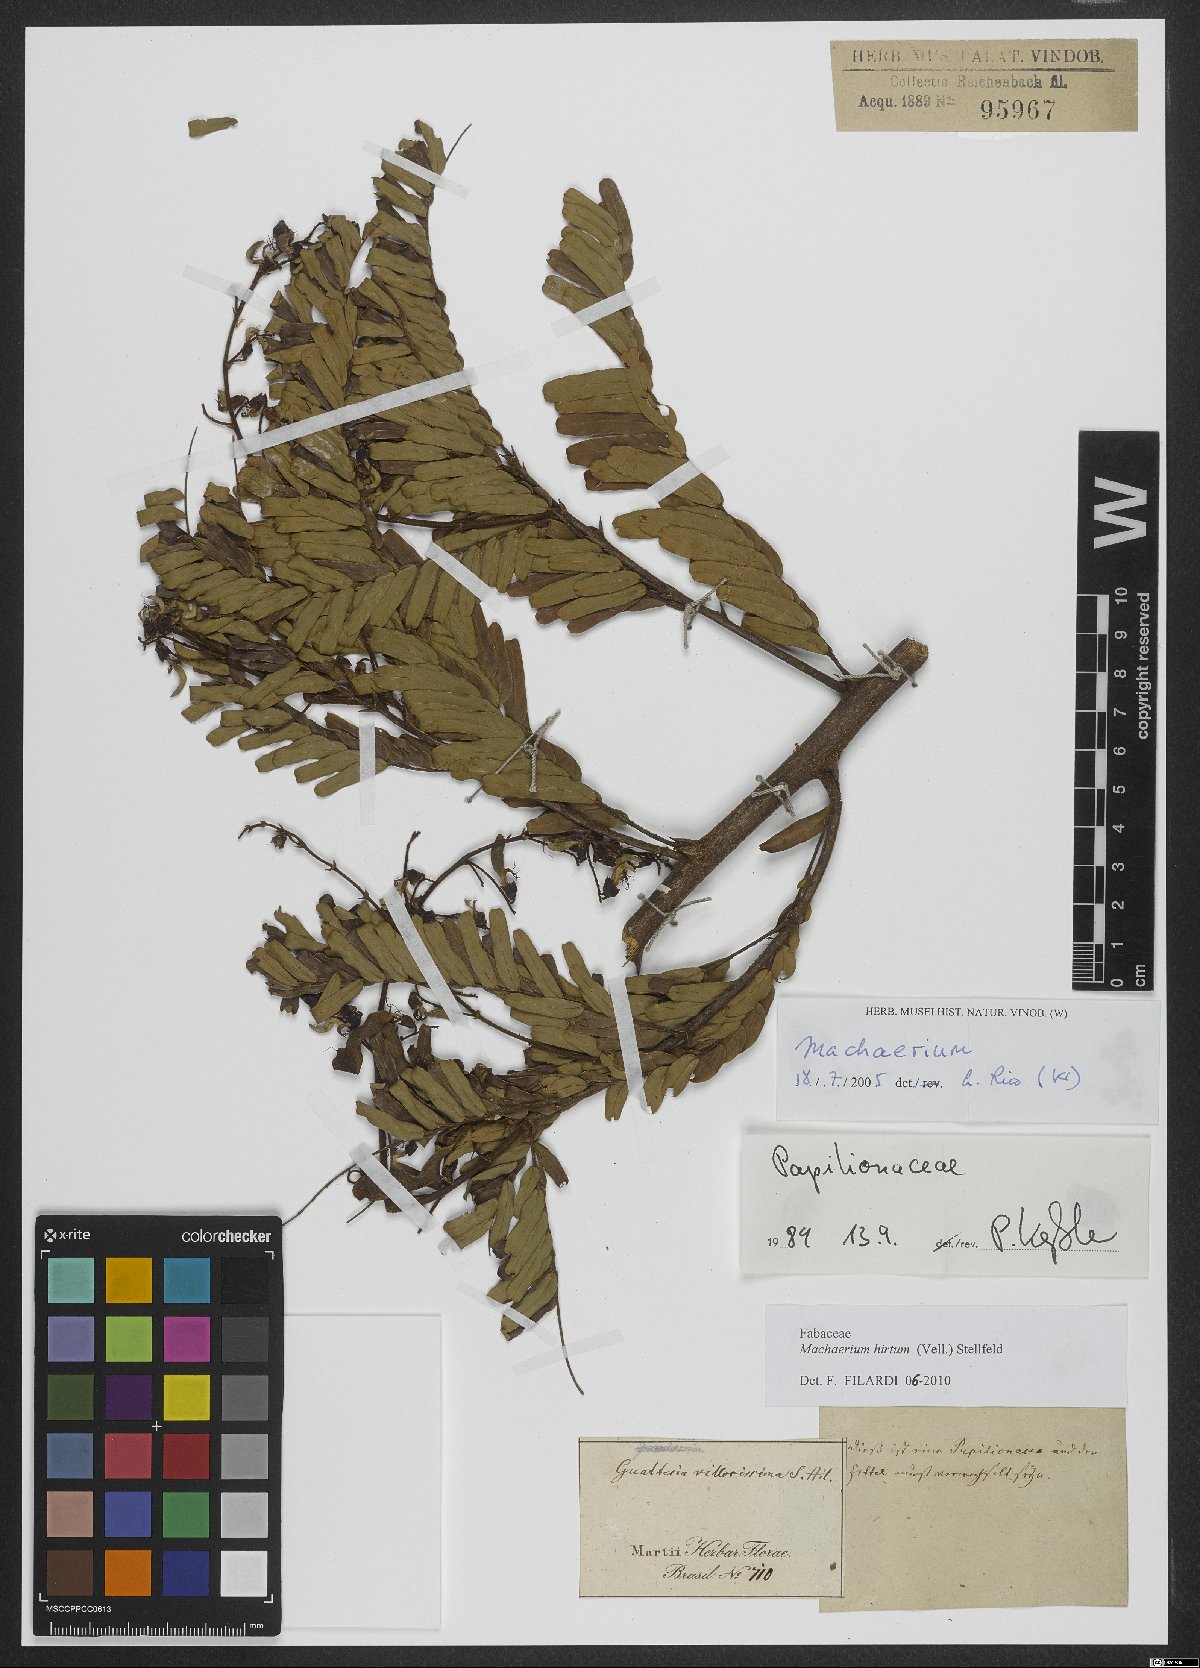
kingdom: Plantae
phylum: Tracheophyta
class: Magnoliopsida
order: Fabales
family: Fabaceae
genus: Machaerium
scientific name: Machaerium hirtum
